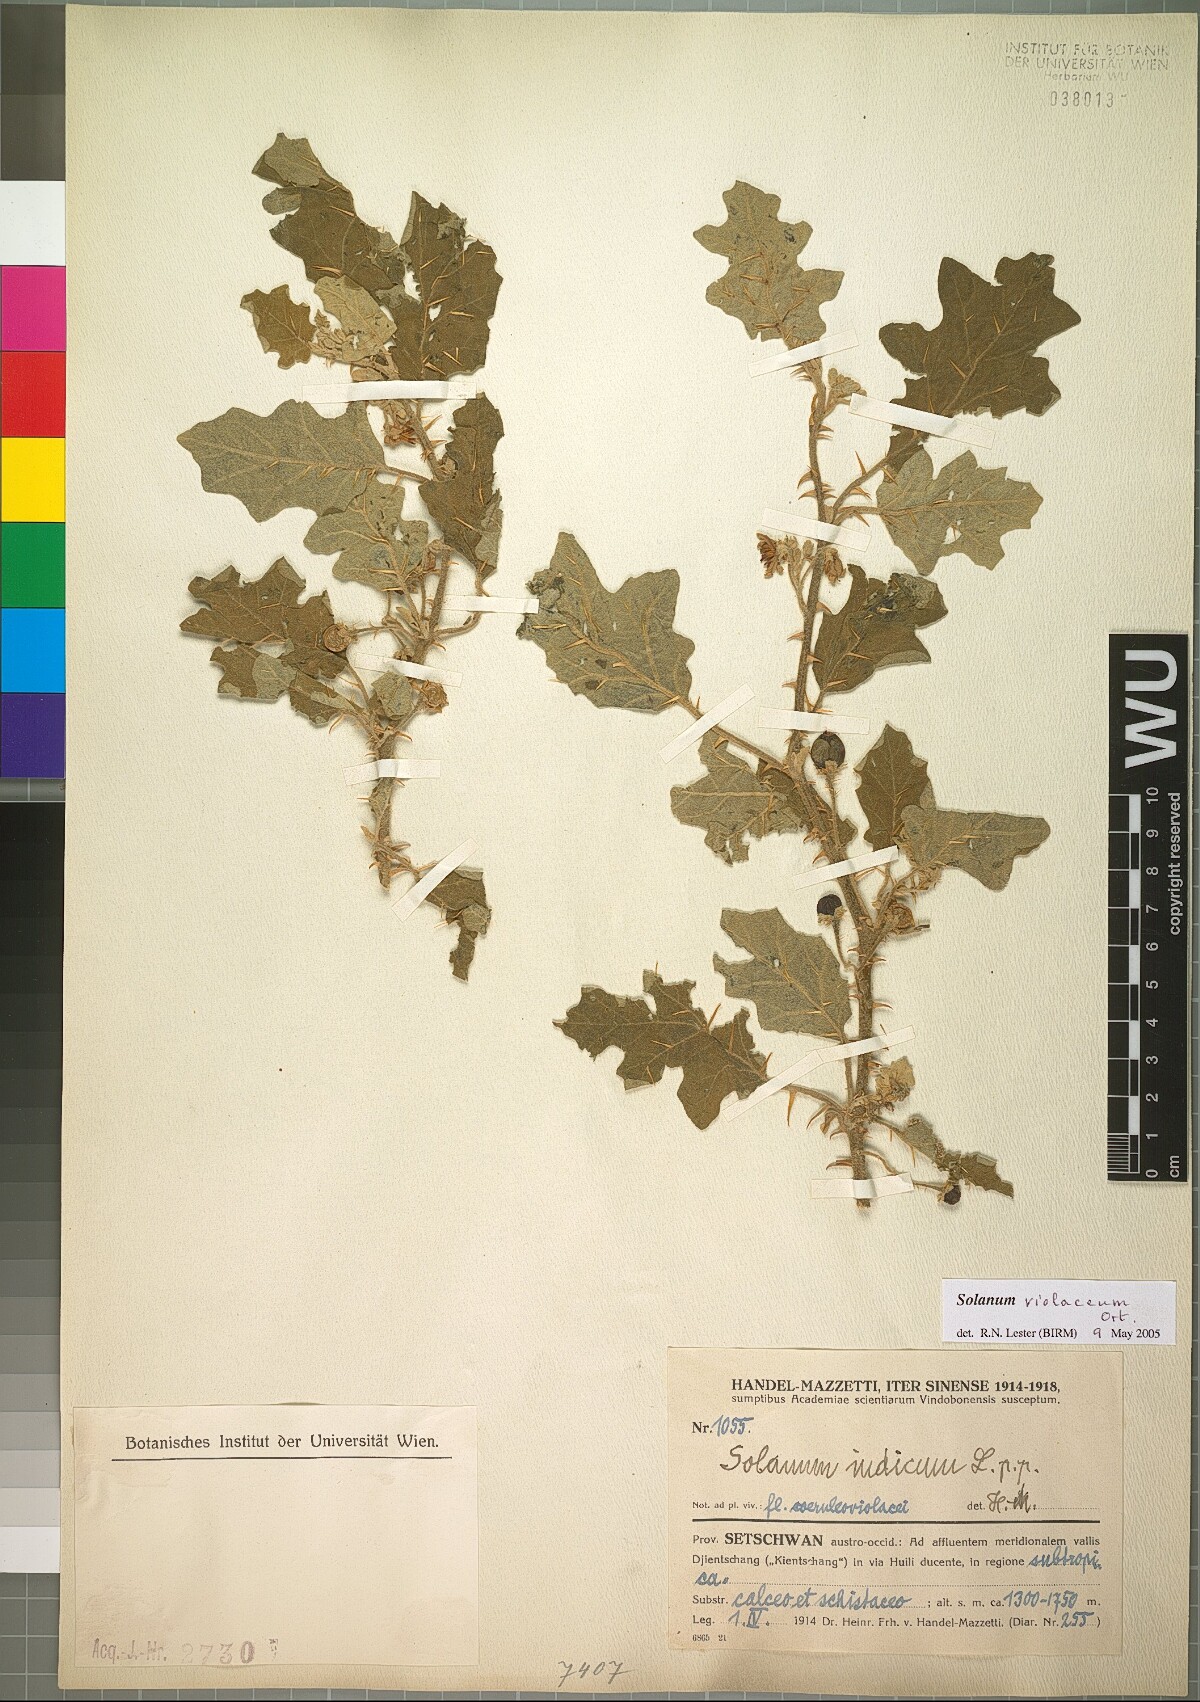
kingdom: Plantae
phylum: Tracheophyta
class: Magnoliopsida
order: Solanales
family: Solanaceae
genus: Solanum
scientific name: Solanum violaceum
